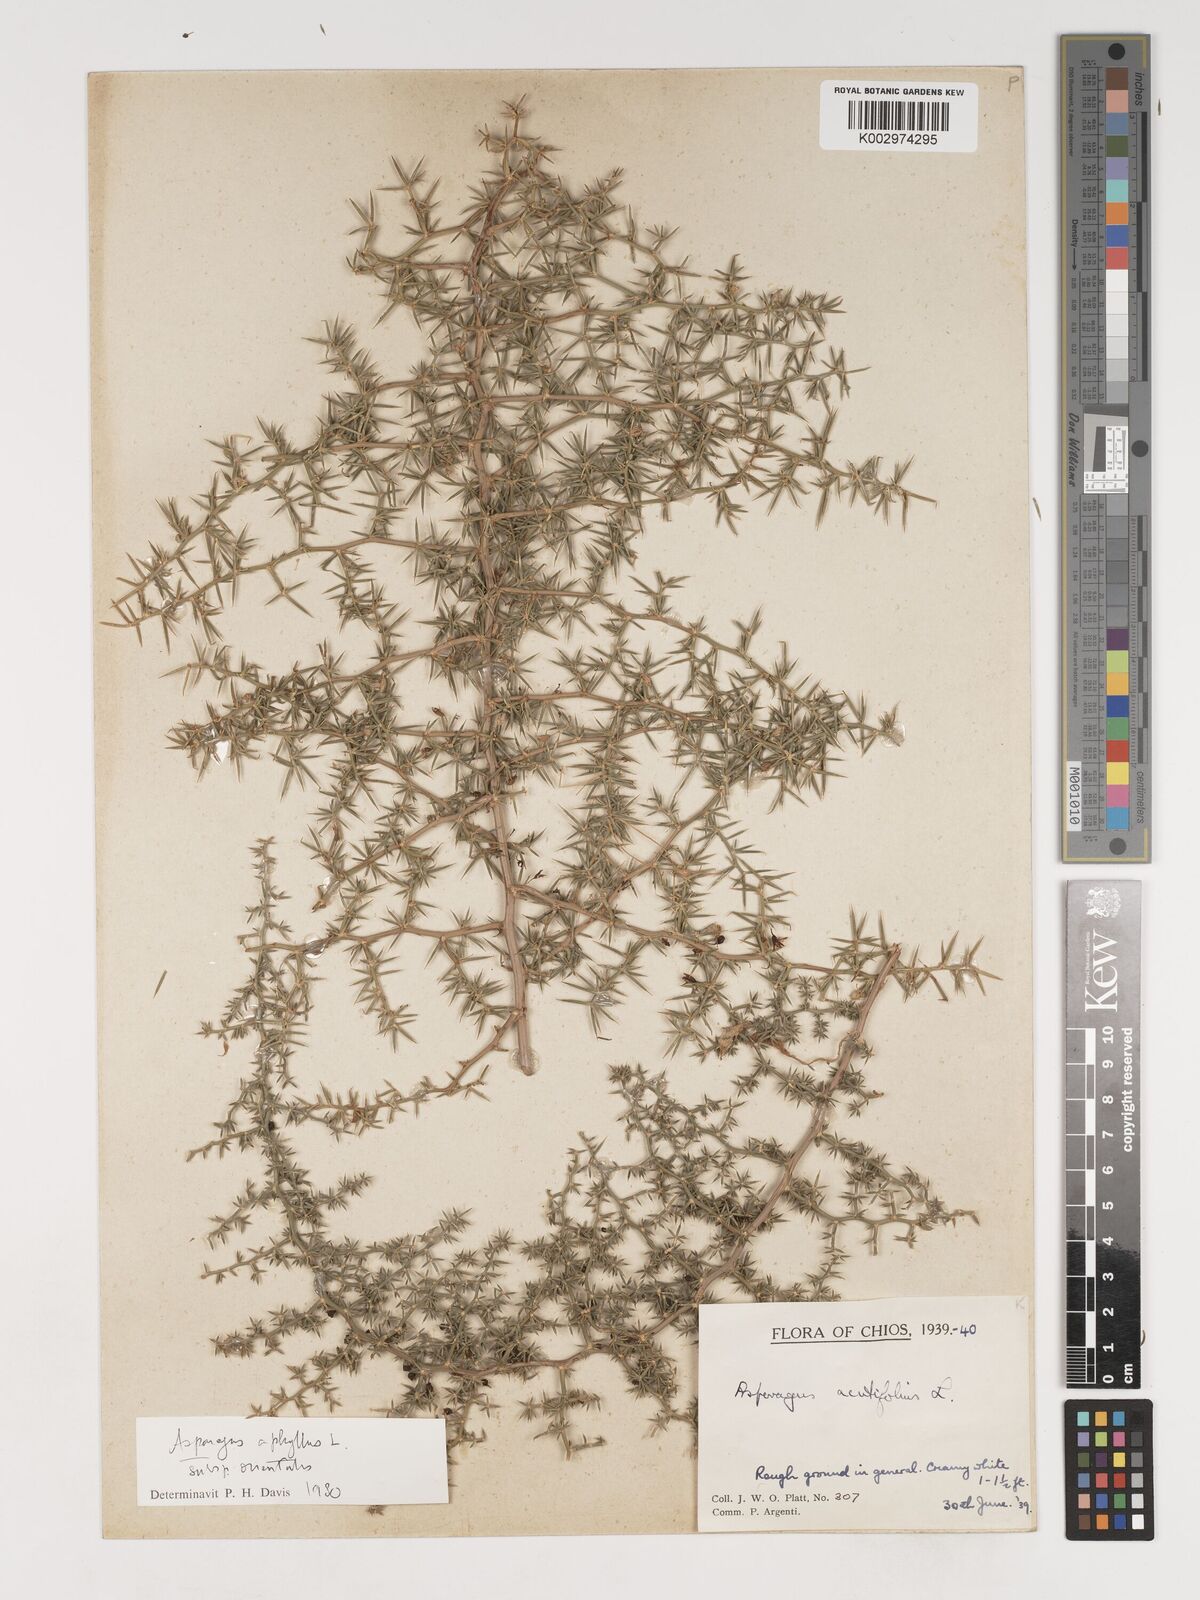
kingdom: Plantae
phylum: Tracheophyta
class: Liliopsida
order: Asparagales
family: Asparagaceae
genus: Asparagus
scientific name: Asparagus aphyllus
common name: Mediterranean asparagus
